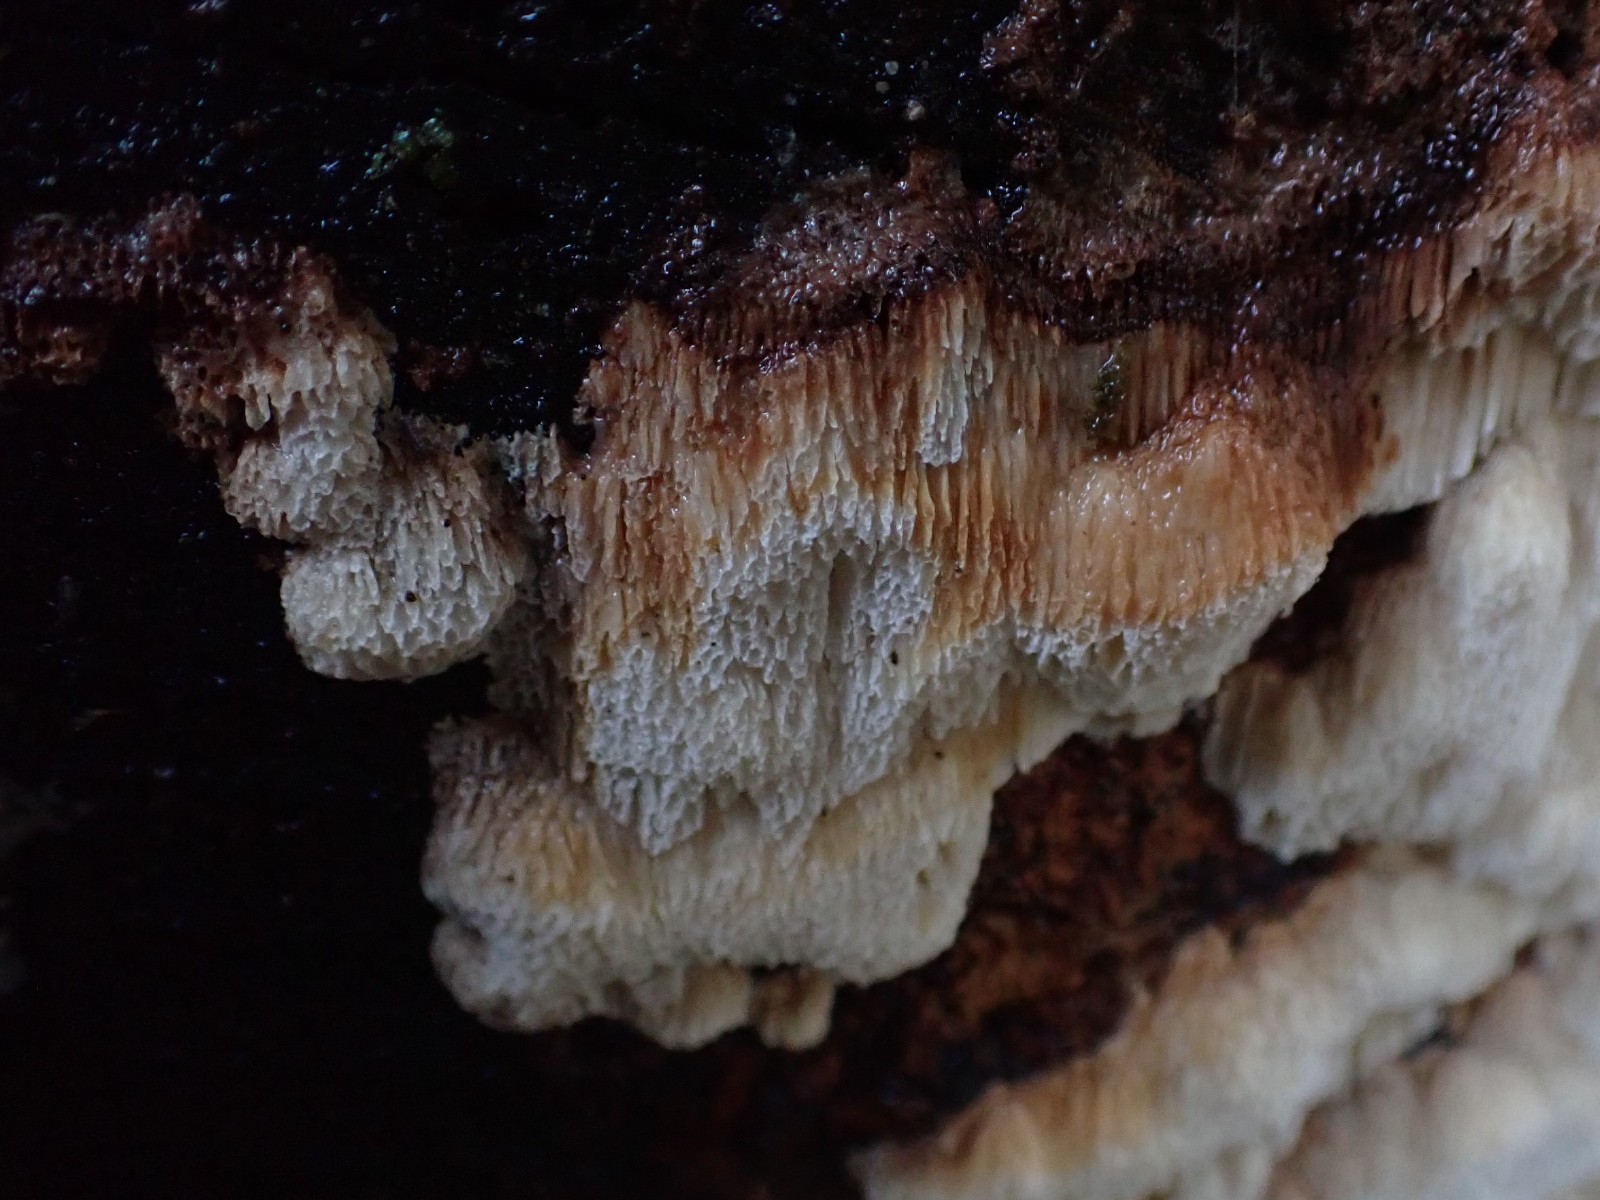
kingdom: Fungi
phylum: Basidiomycota
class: Agaricomycetes
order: Polyporales
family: Fomitopsidaceae
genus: Neoantrodia
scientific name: Neoantrodia serialis
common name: række-sejporesvamp
